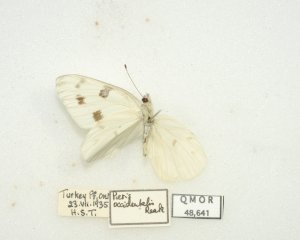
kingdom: Animalia
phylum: Arthropoda
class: Insecta
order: Lepidoptera
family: Pieridae
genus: Pontia
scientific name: Pontia protodice
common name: Checkered White
